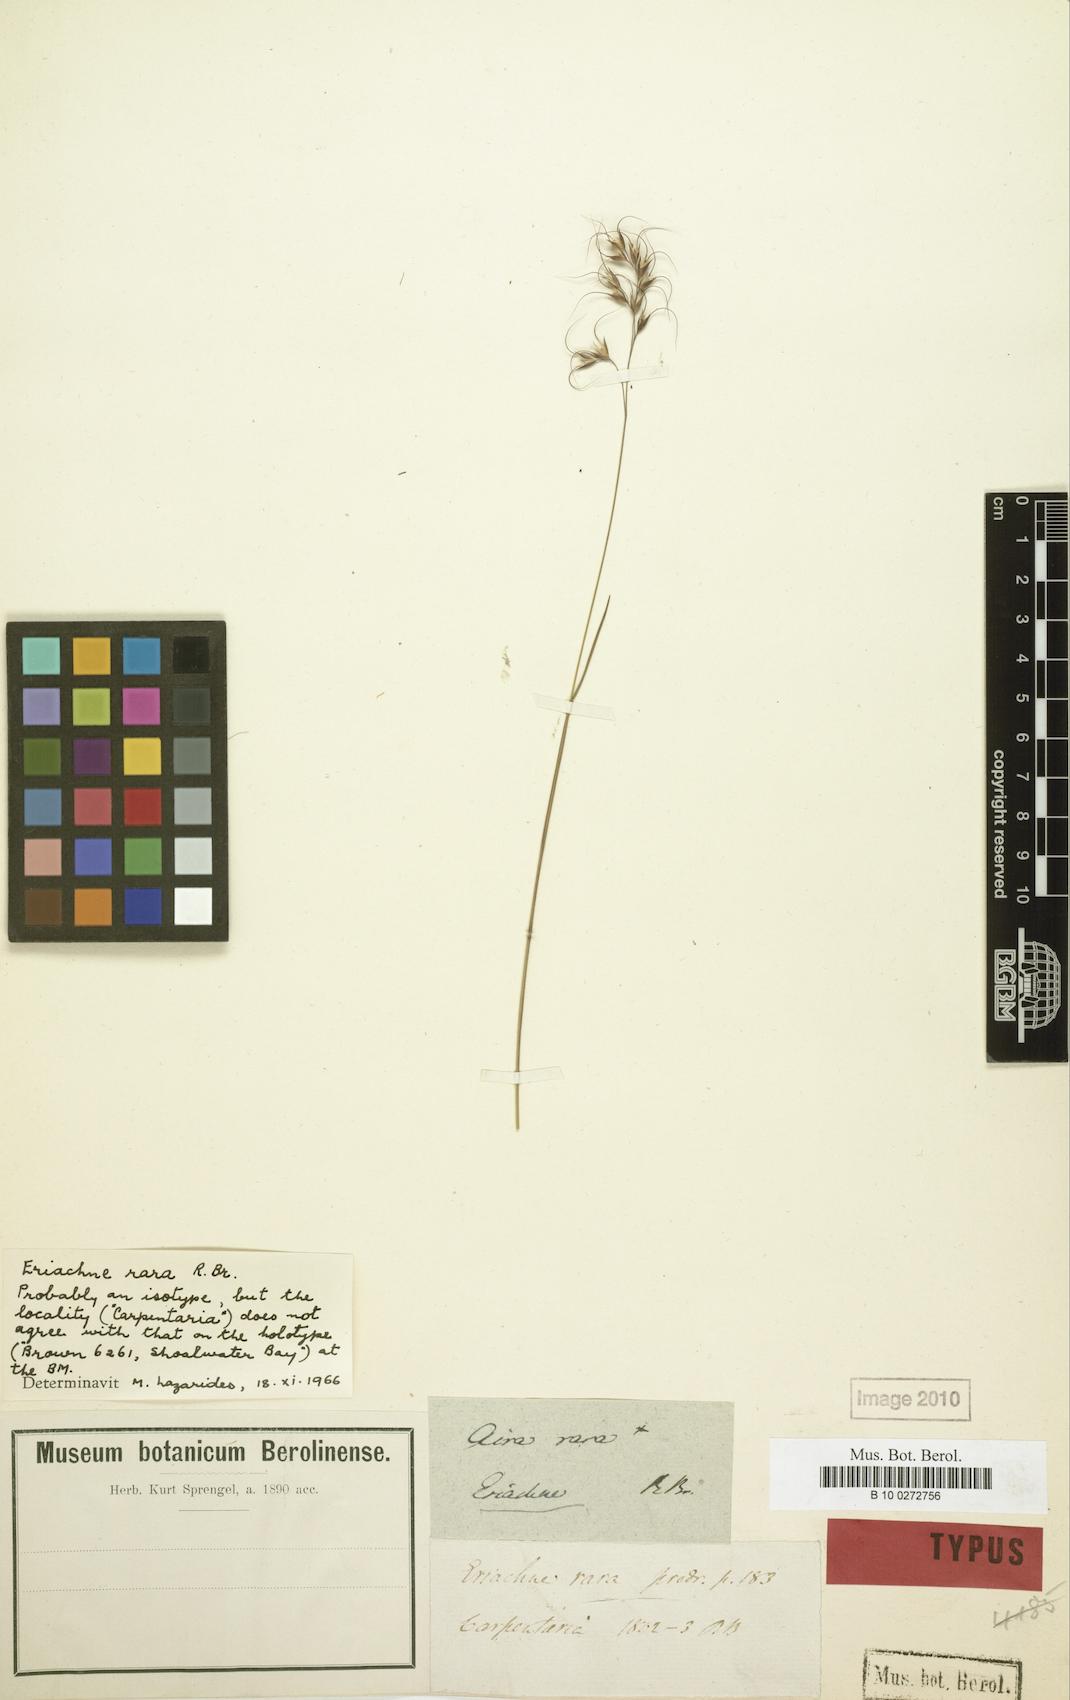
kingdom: Plantae
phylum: Tracheophyta
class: Liliopsida
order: Poales
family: Poaceae
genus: Eriachne
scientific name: Eriachne rara
